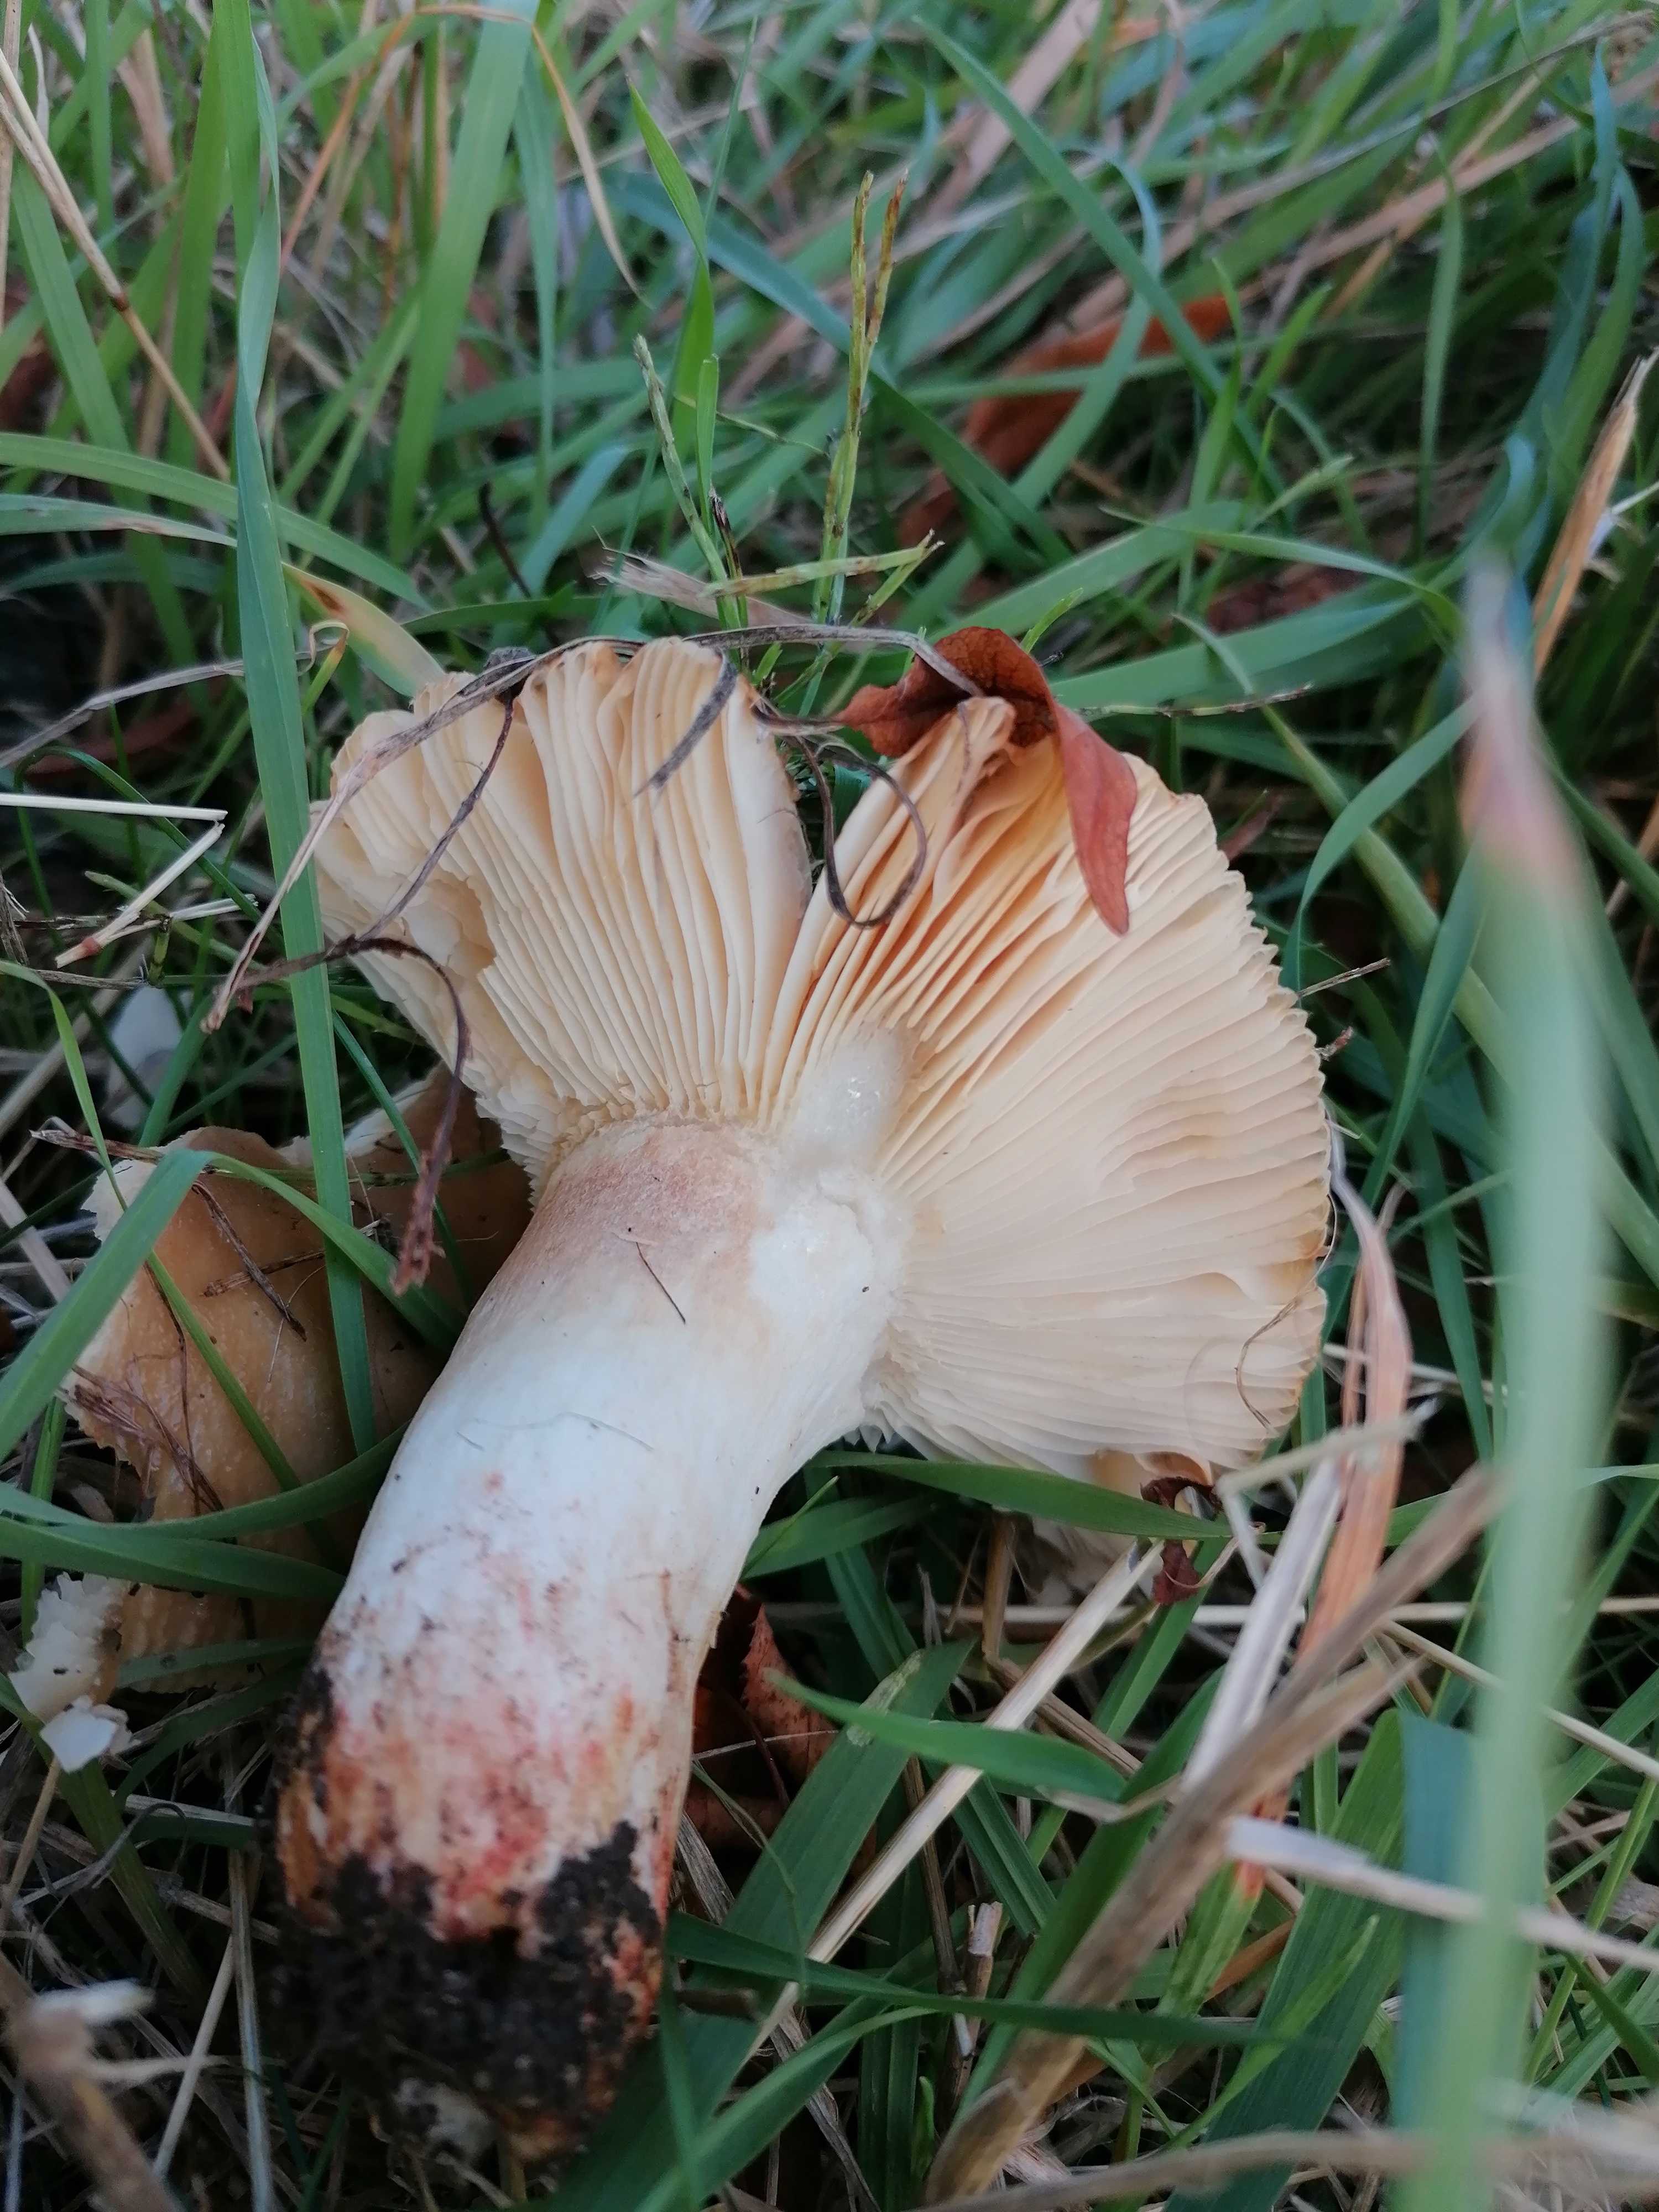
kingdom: Fungi
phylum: Basidiomycota
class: Agaricomycetes
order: Russulales
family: Russulaceae
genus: Russula
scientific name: Russula recondita
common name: mild kam-skørhat
